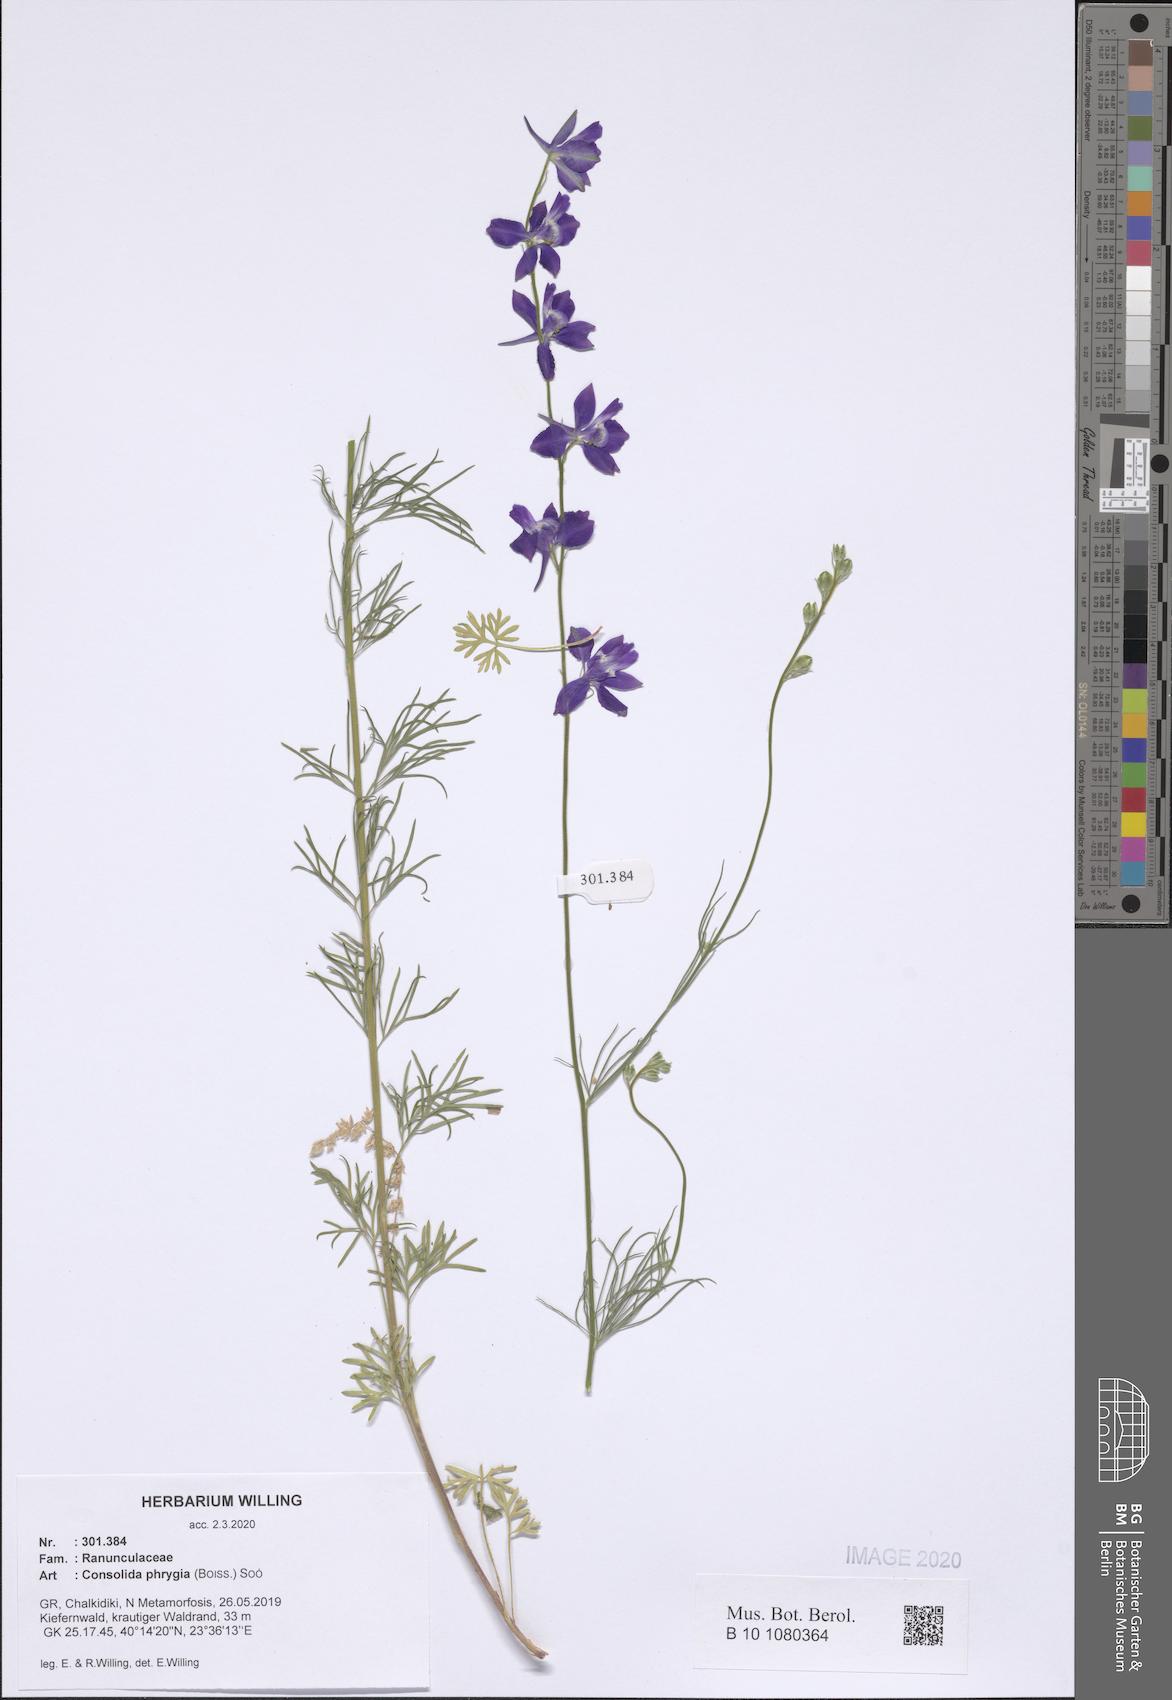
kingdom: Plantae
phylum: Tracheophyta
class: Magnoliopsida
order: Ranunculales
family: Ranunculaceae
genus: Delphinium
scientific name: Delphinium phrygium
